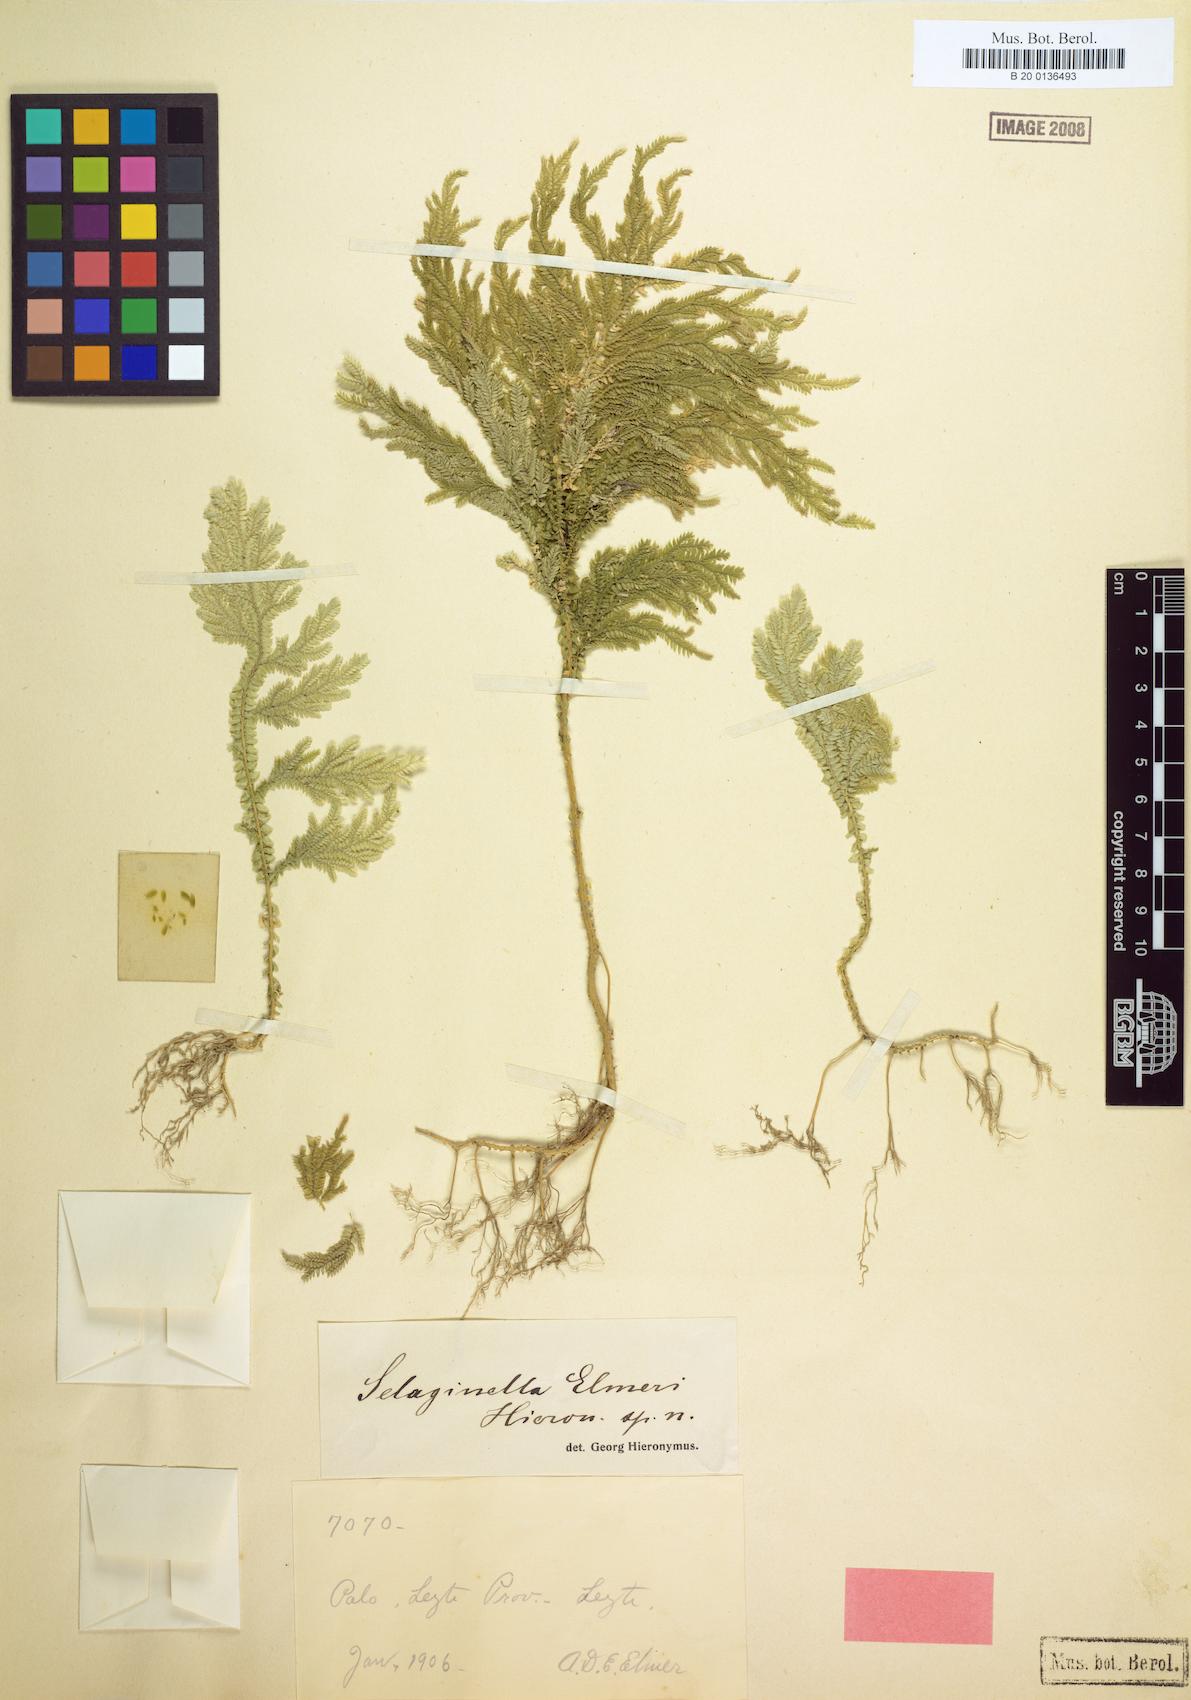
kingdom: Plantae
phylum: Tracheophyta
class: Lycopodiopsida
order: Selaginellales
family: Selaginellaceae
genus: Selaginella
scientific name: Selaginella elmeri
